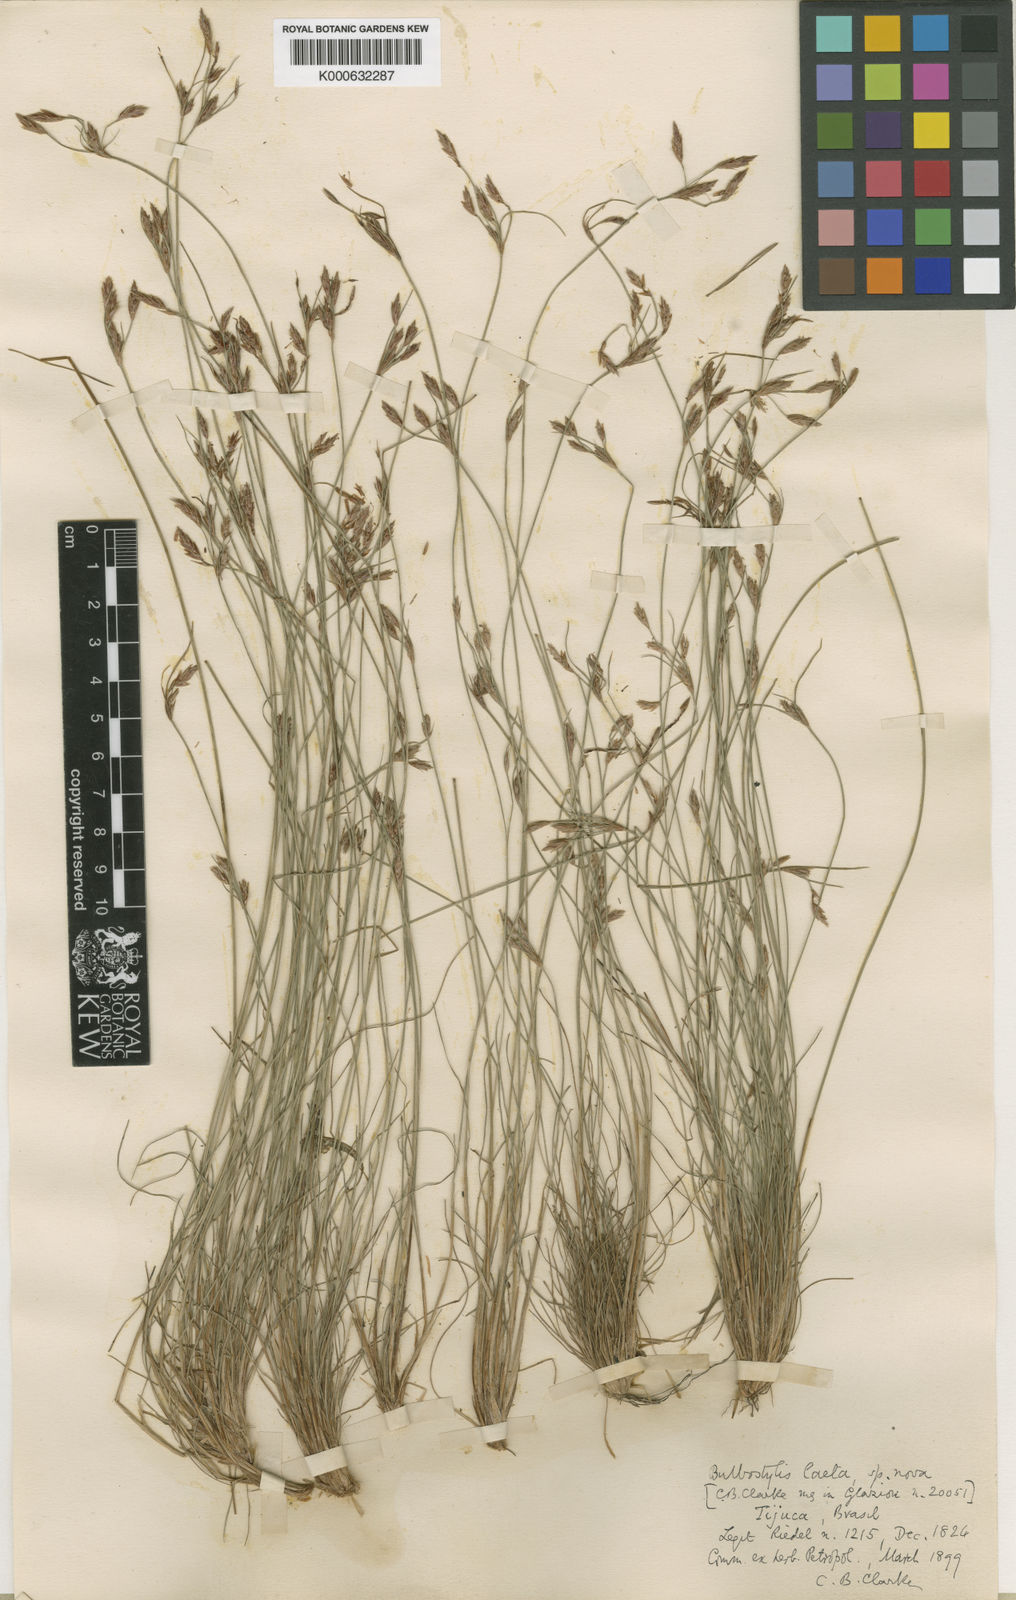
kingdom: Plantae
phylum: Tracheophyta
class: Liliopsida
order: Poales
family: Cyperaceae
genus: Bulbostylis
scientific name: Bulbostylis laeta
